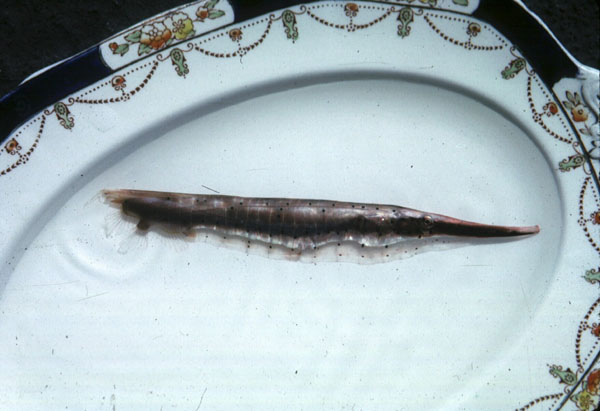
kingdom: Animalia
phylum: Chordata
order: Syngnathiformes
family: Centriscidae
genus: Aeoliscus
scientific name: Aeoliscus punctulatus
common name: Razorfish
